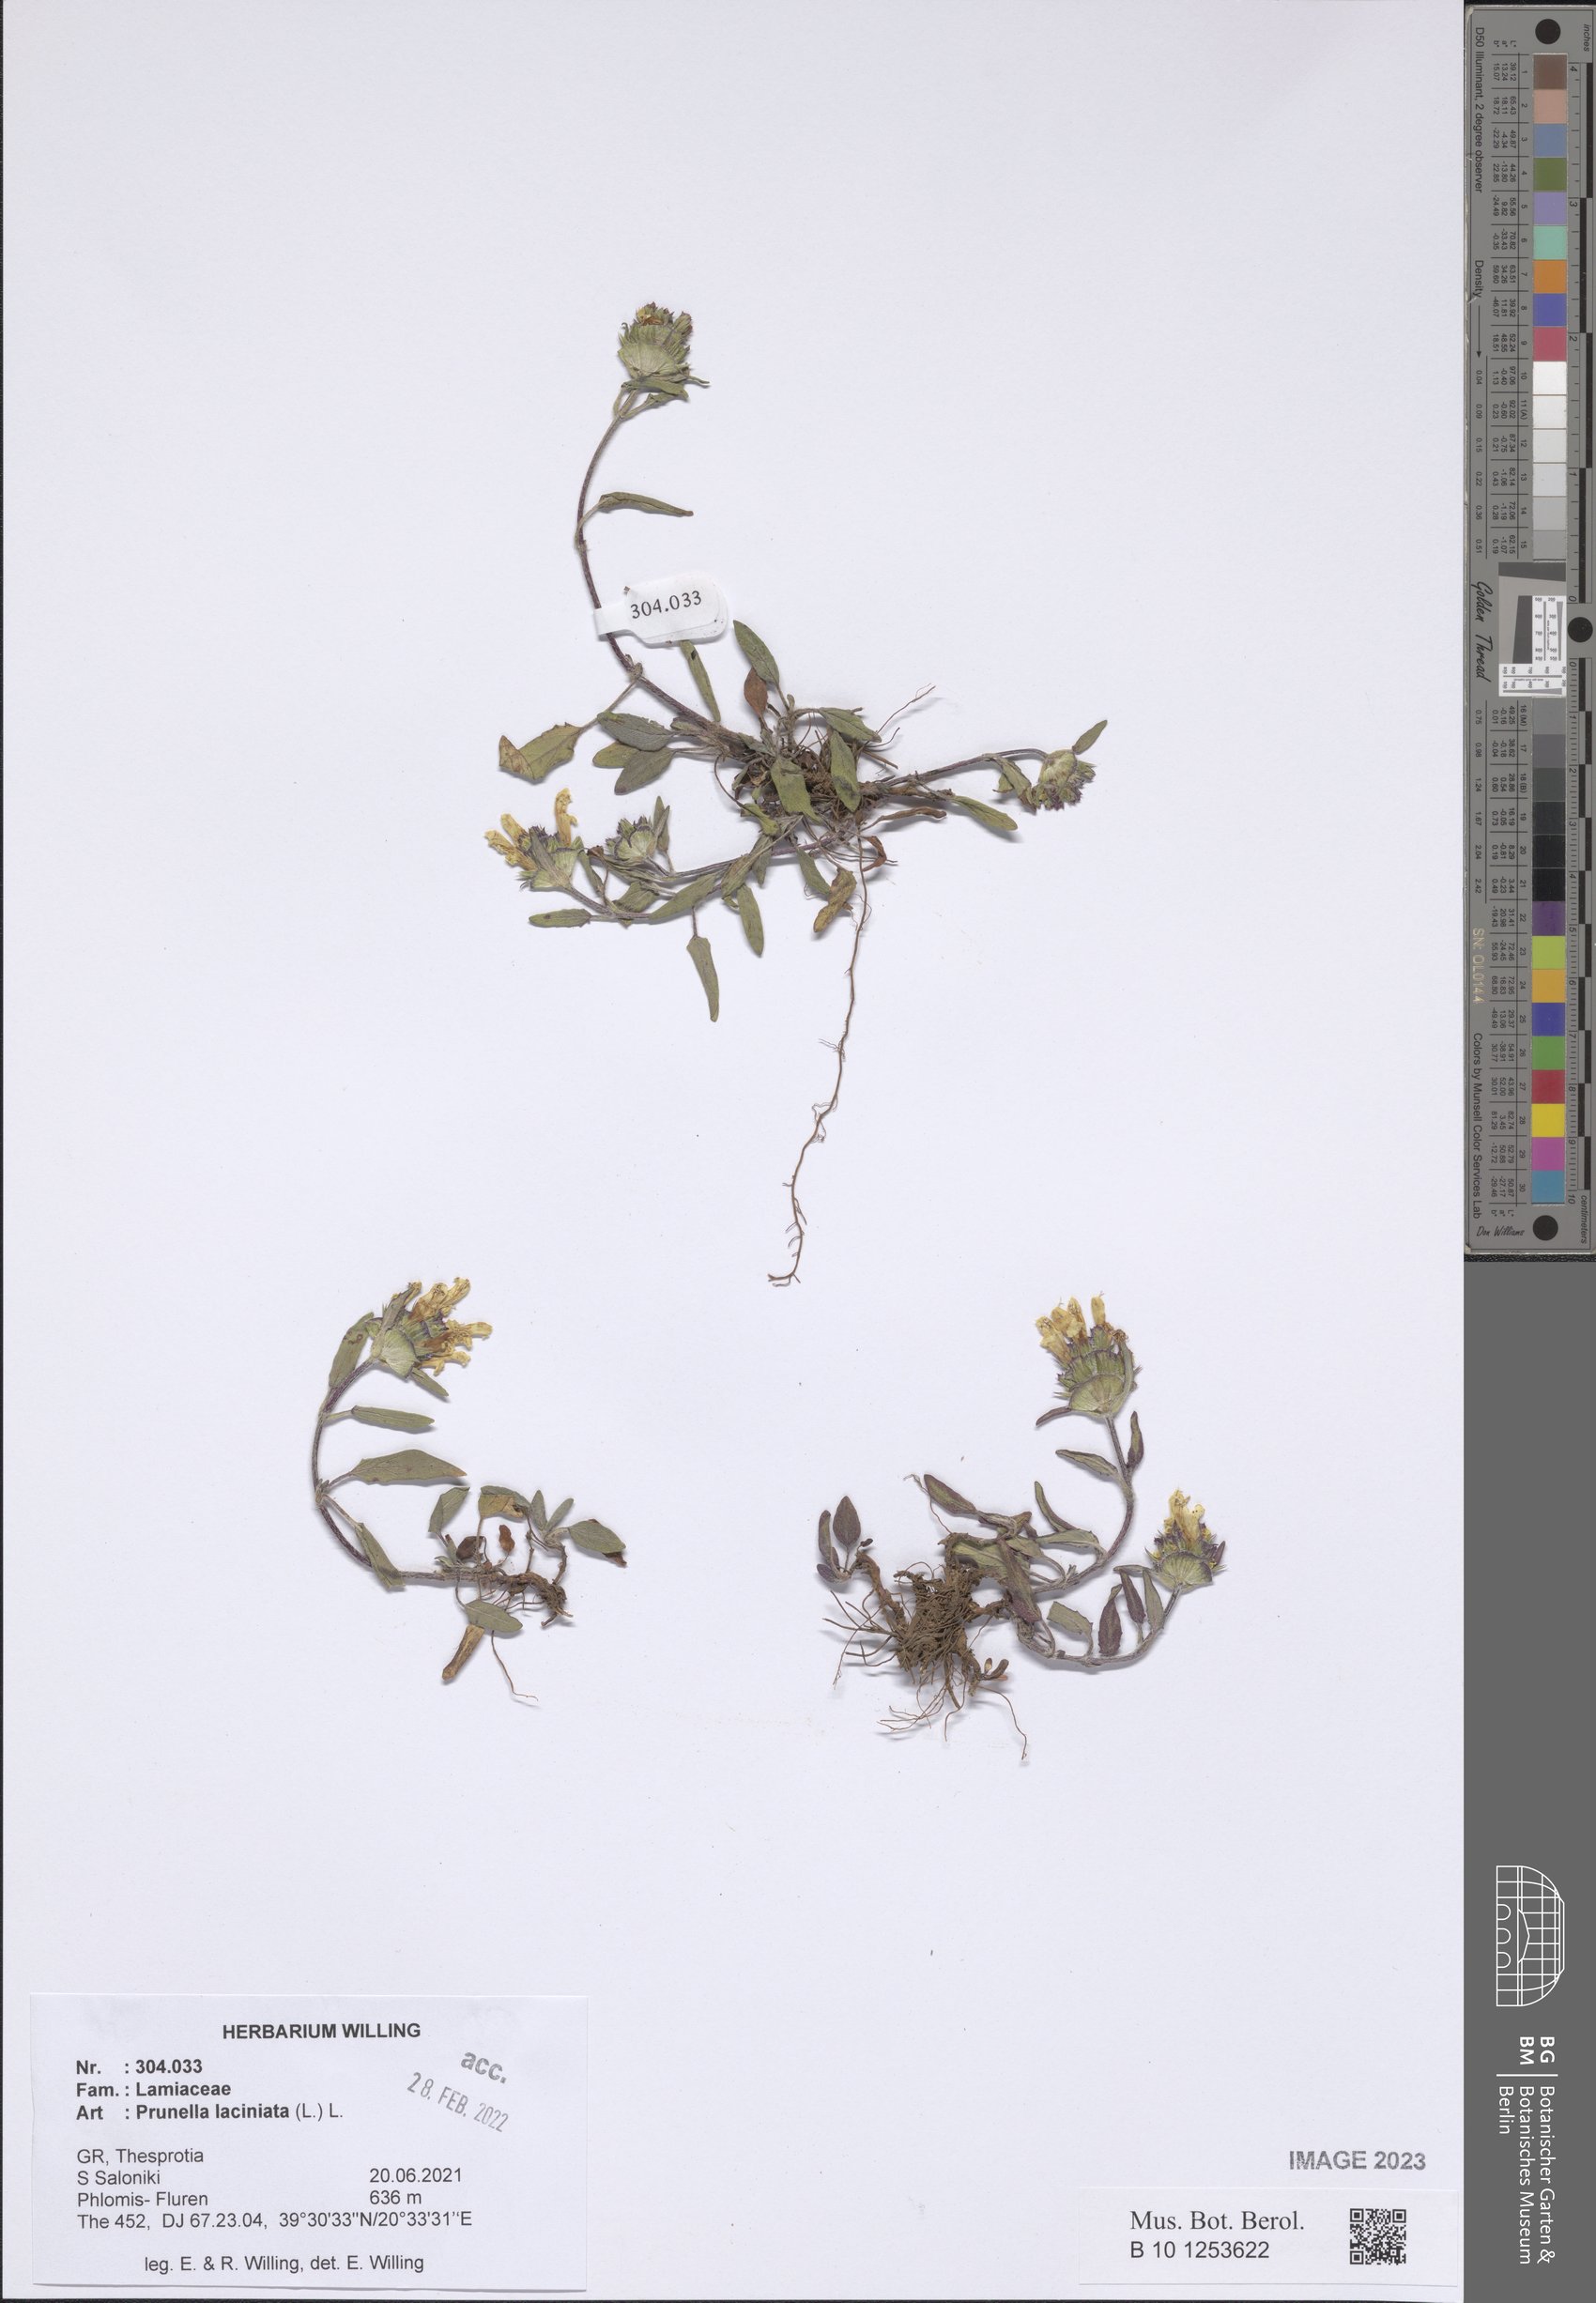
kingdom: Plantae
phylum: Tracheophyta
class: Magnoliopsida
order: Lamiales
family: Lamiaceae
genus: Prunella
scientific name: Prunella laciniata
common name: Cut-leaved selfheal
